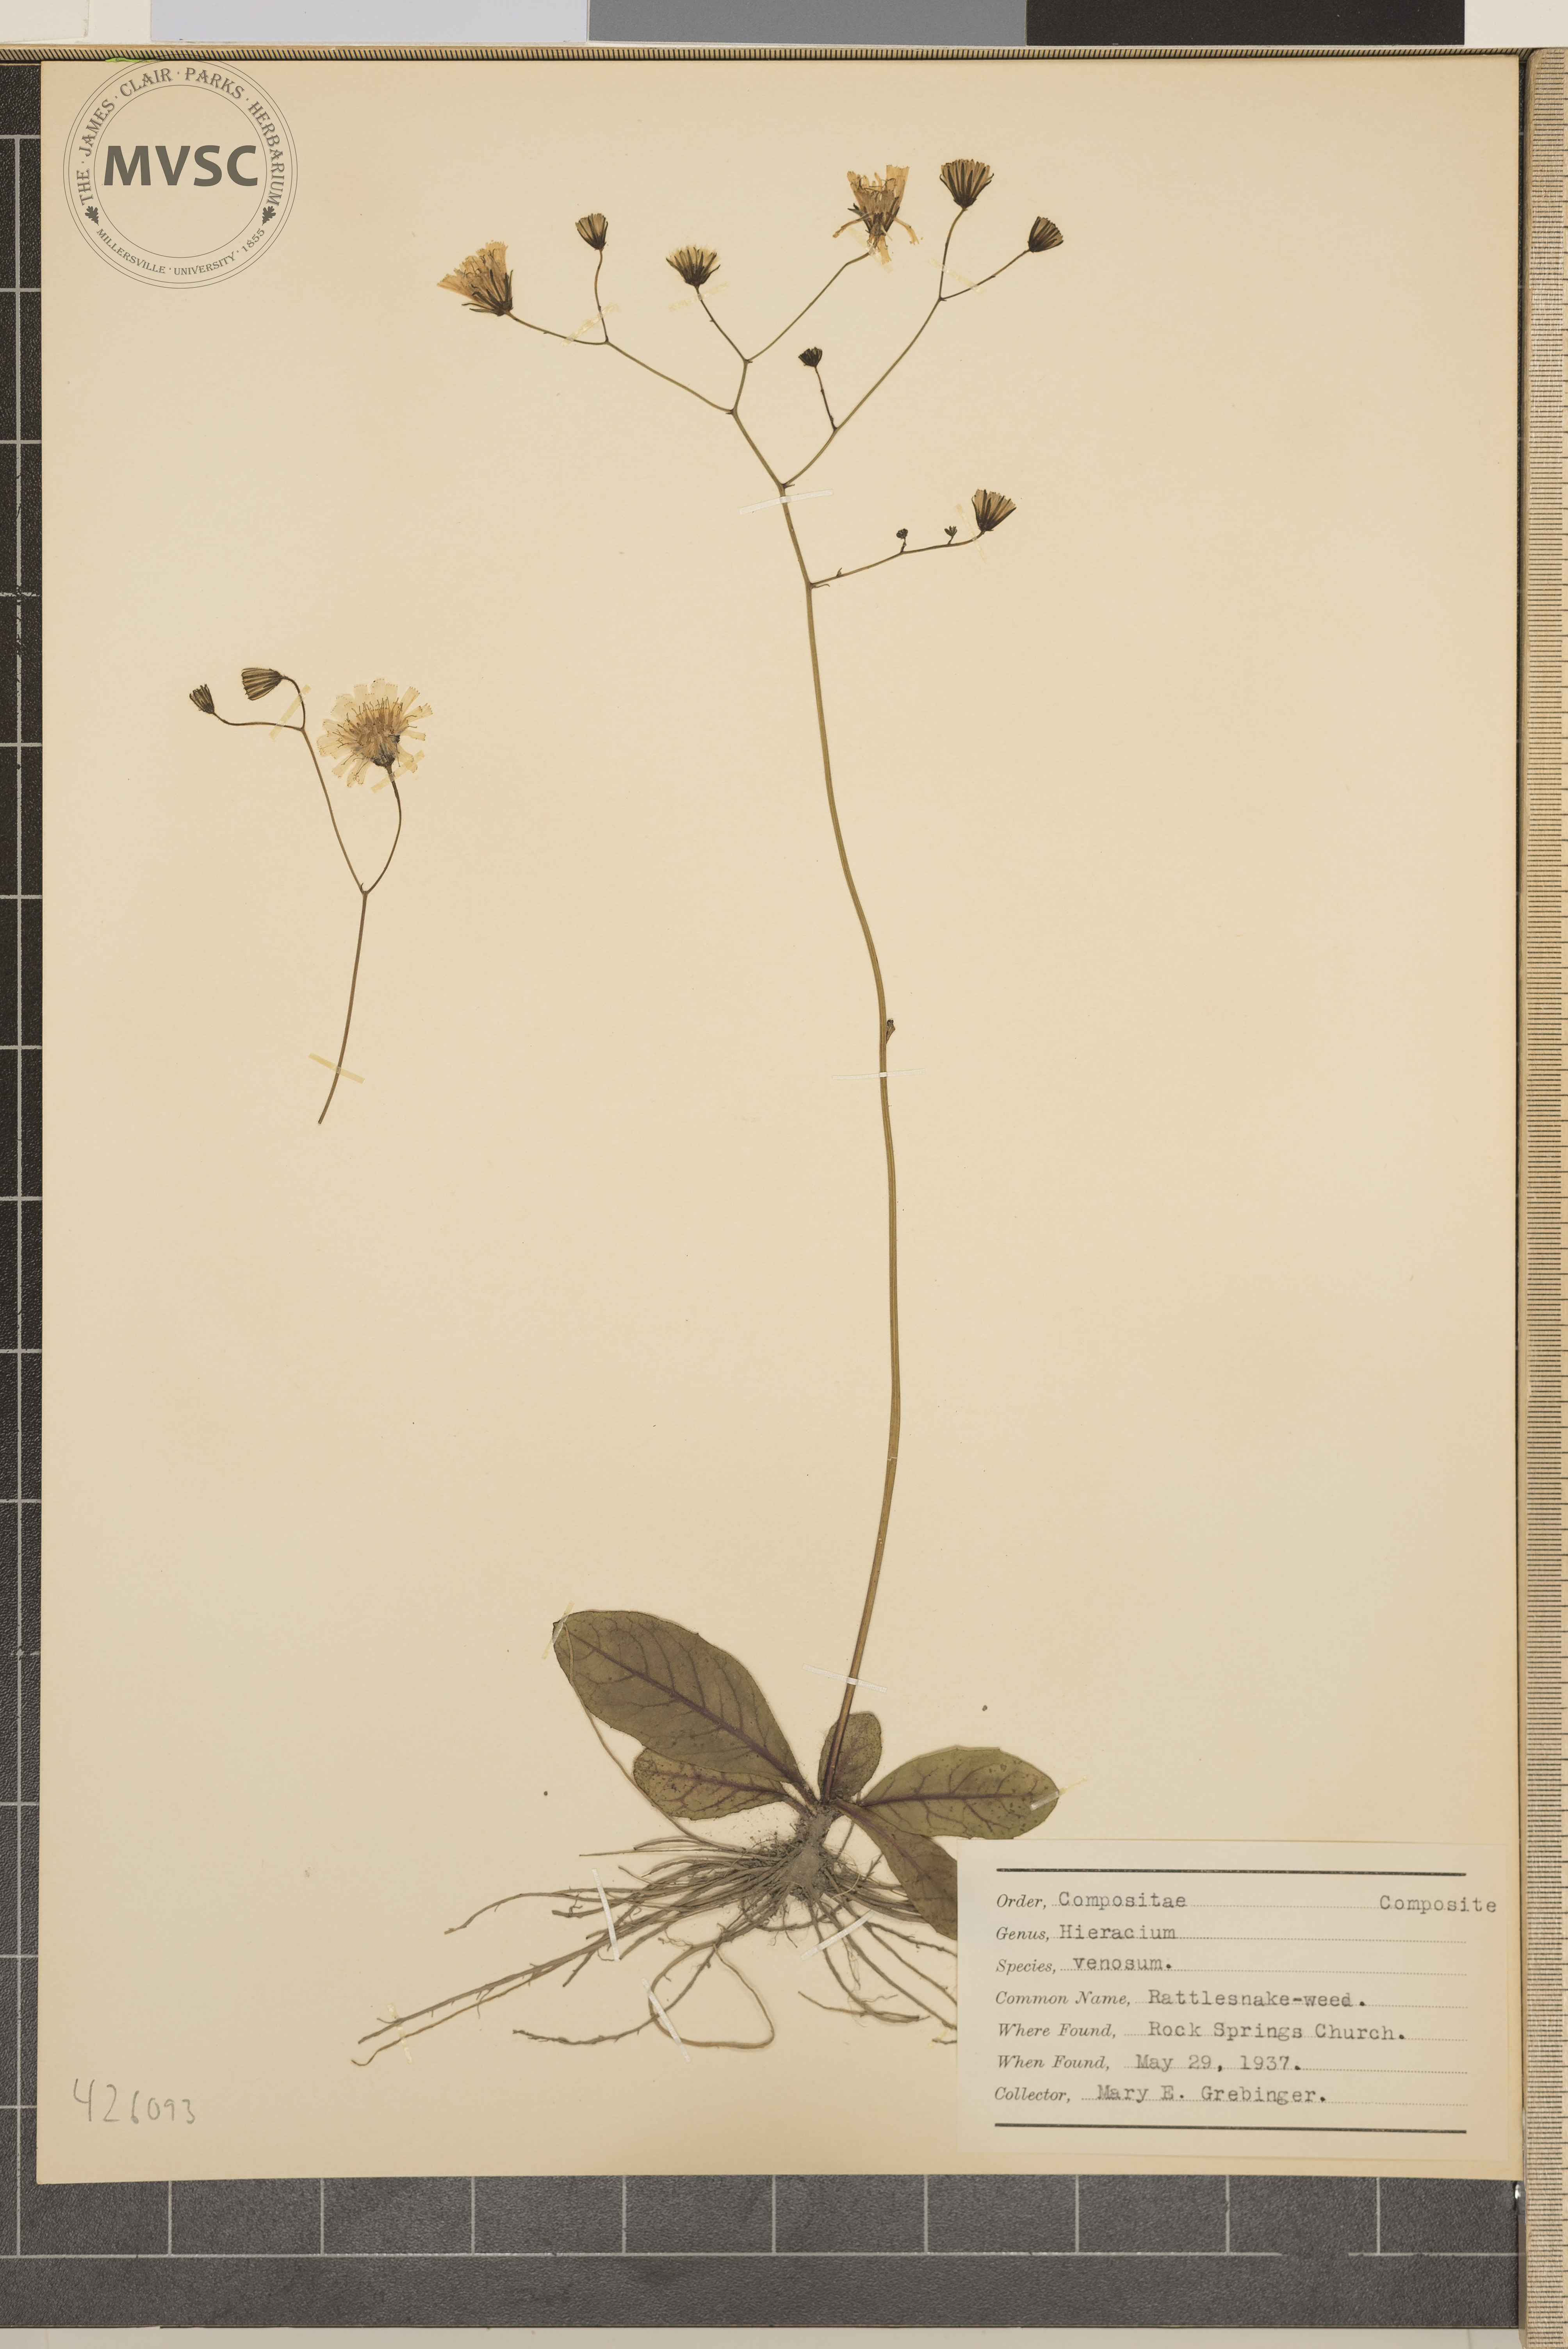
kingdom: Plantae
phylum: Tracheophyta
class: Magnoliopsida
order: Asterales
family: Asteraceae
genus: Hieracium
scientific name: Hieracium venosum
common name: Rattlesnake-weed
